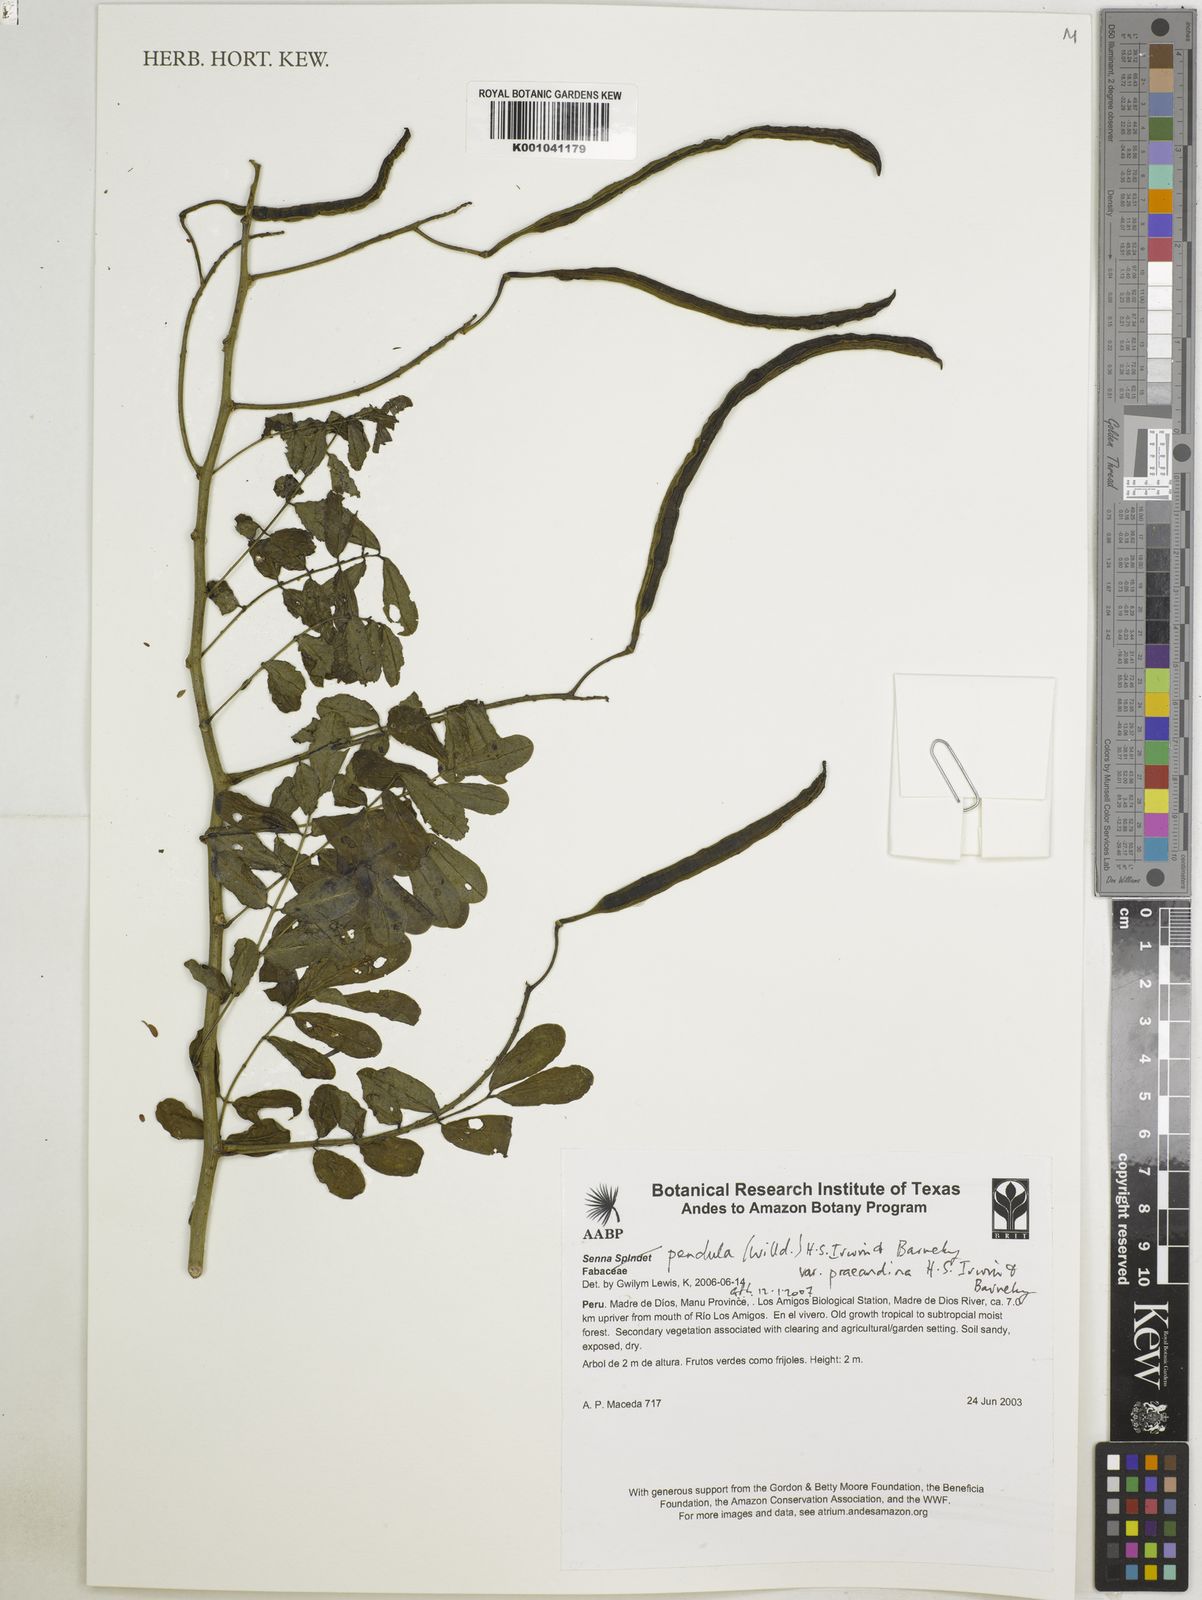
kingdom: Plantae
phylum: Tracheophyta
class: Magnoliopsida
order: Fabales
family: Fabaceae
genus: Senna
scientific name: Senna pendula
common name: Easter cassia
